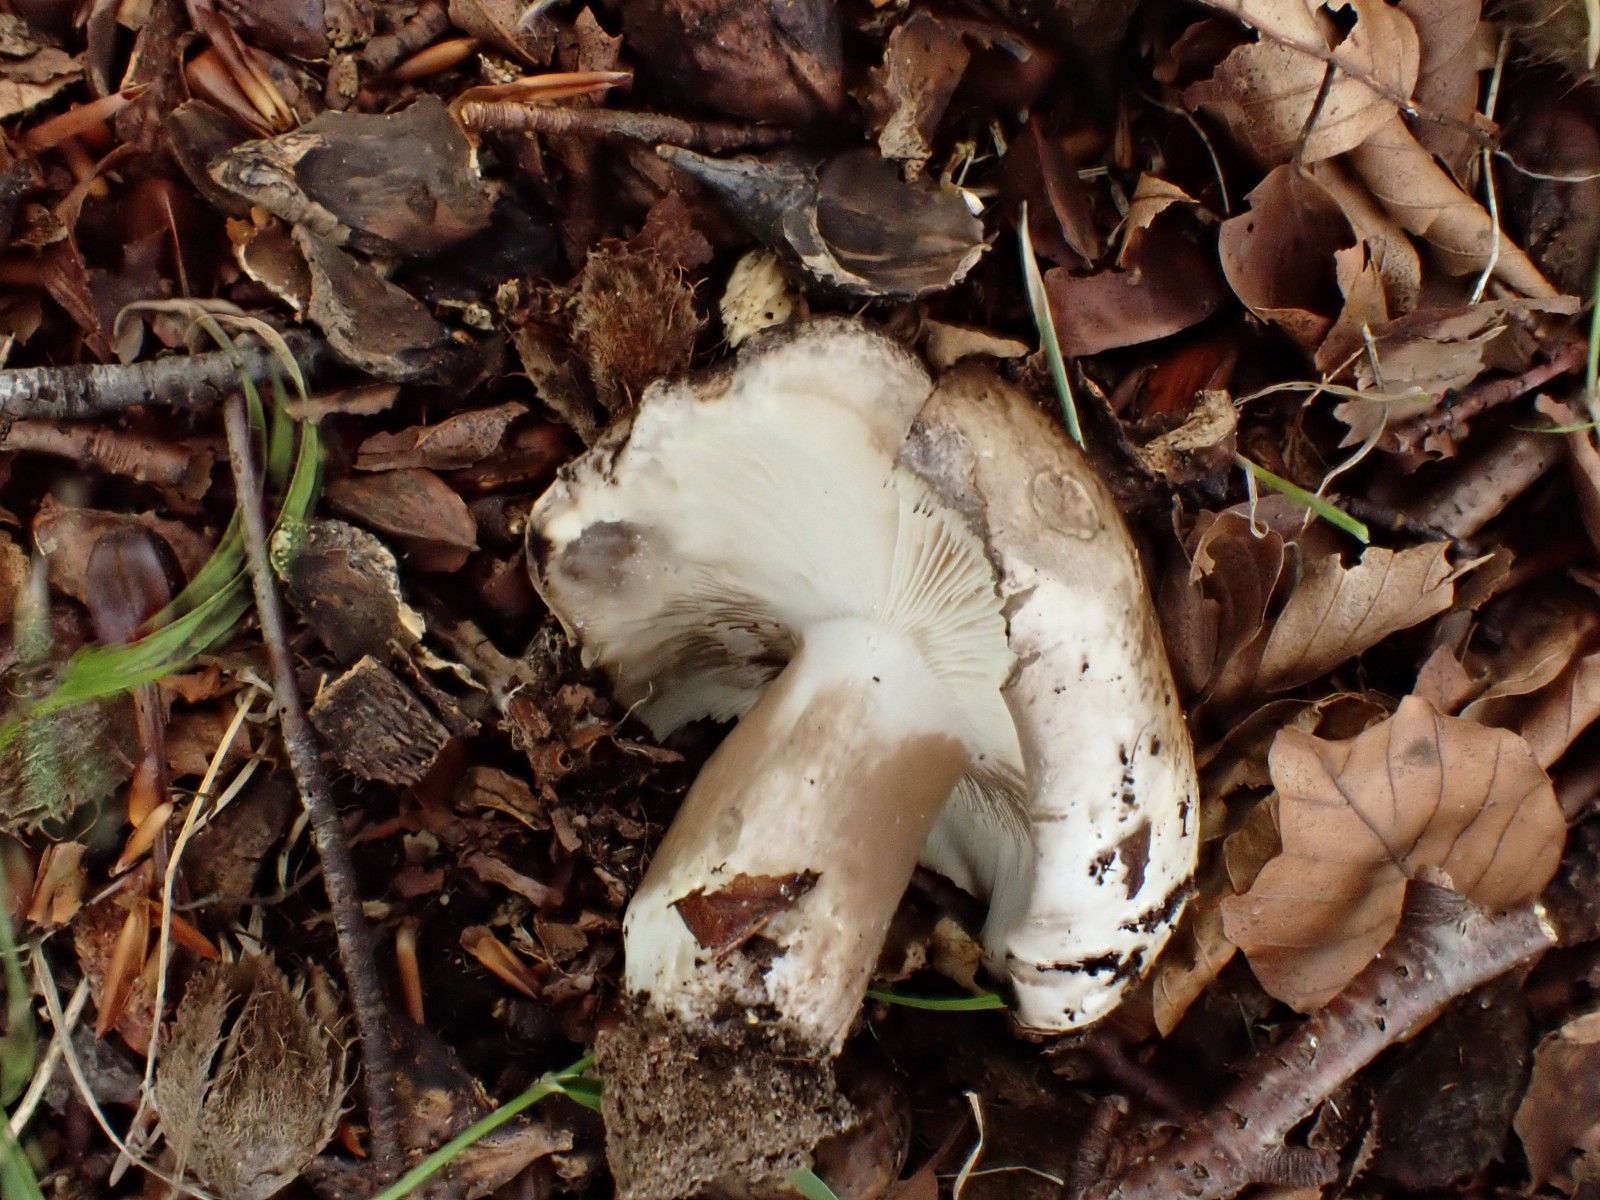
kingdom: Fungi
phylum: Basidiomycota
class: Agaricomycetes
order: Russulales
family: Russulaceae
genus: Russula
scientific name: Russula densifolia
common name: tætbladet skørhat
